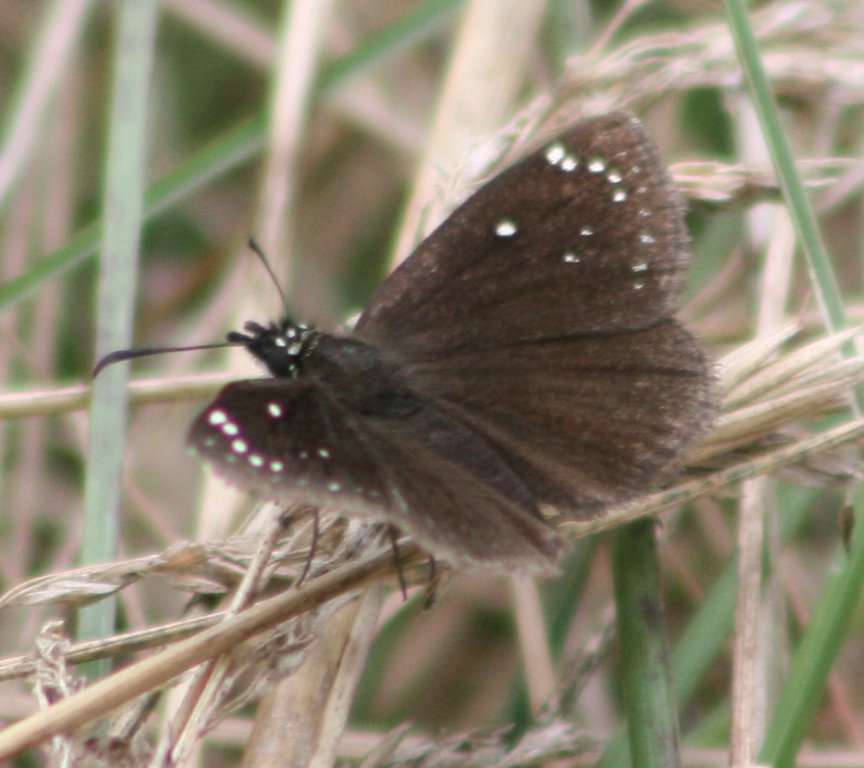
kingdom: Animalia
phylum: Arthropoda
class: Insecta
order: Lepidoptera
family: Hesperiidae
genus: Pholisora
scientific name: Pholisora catullus
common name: Common Sootywing
